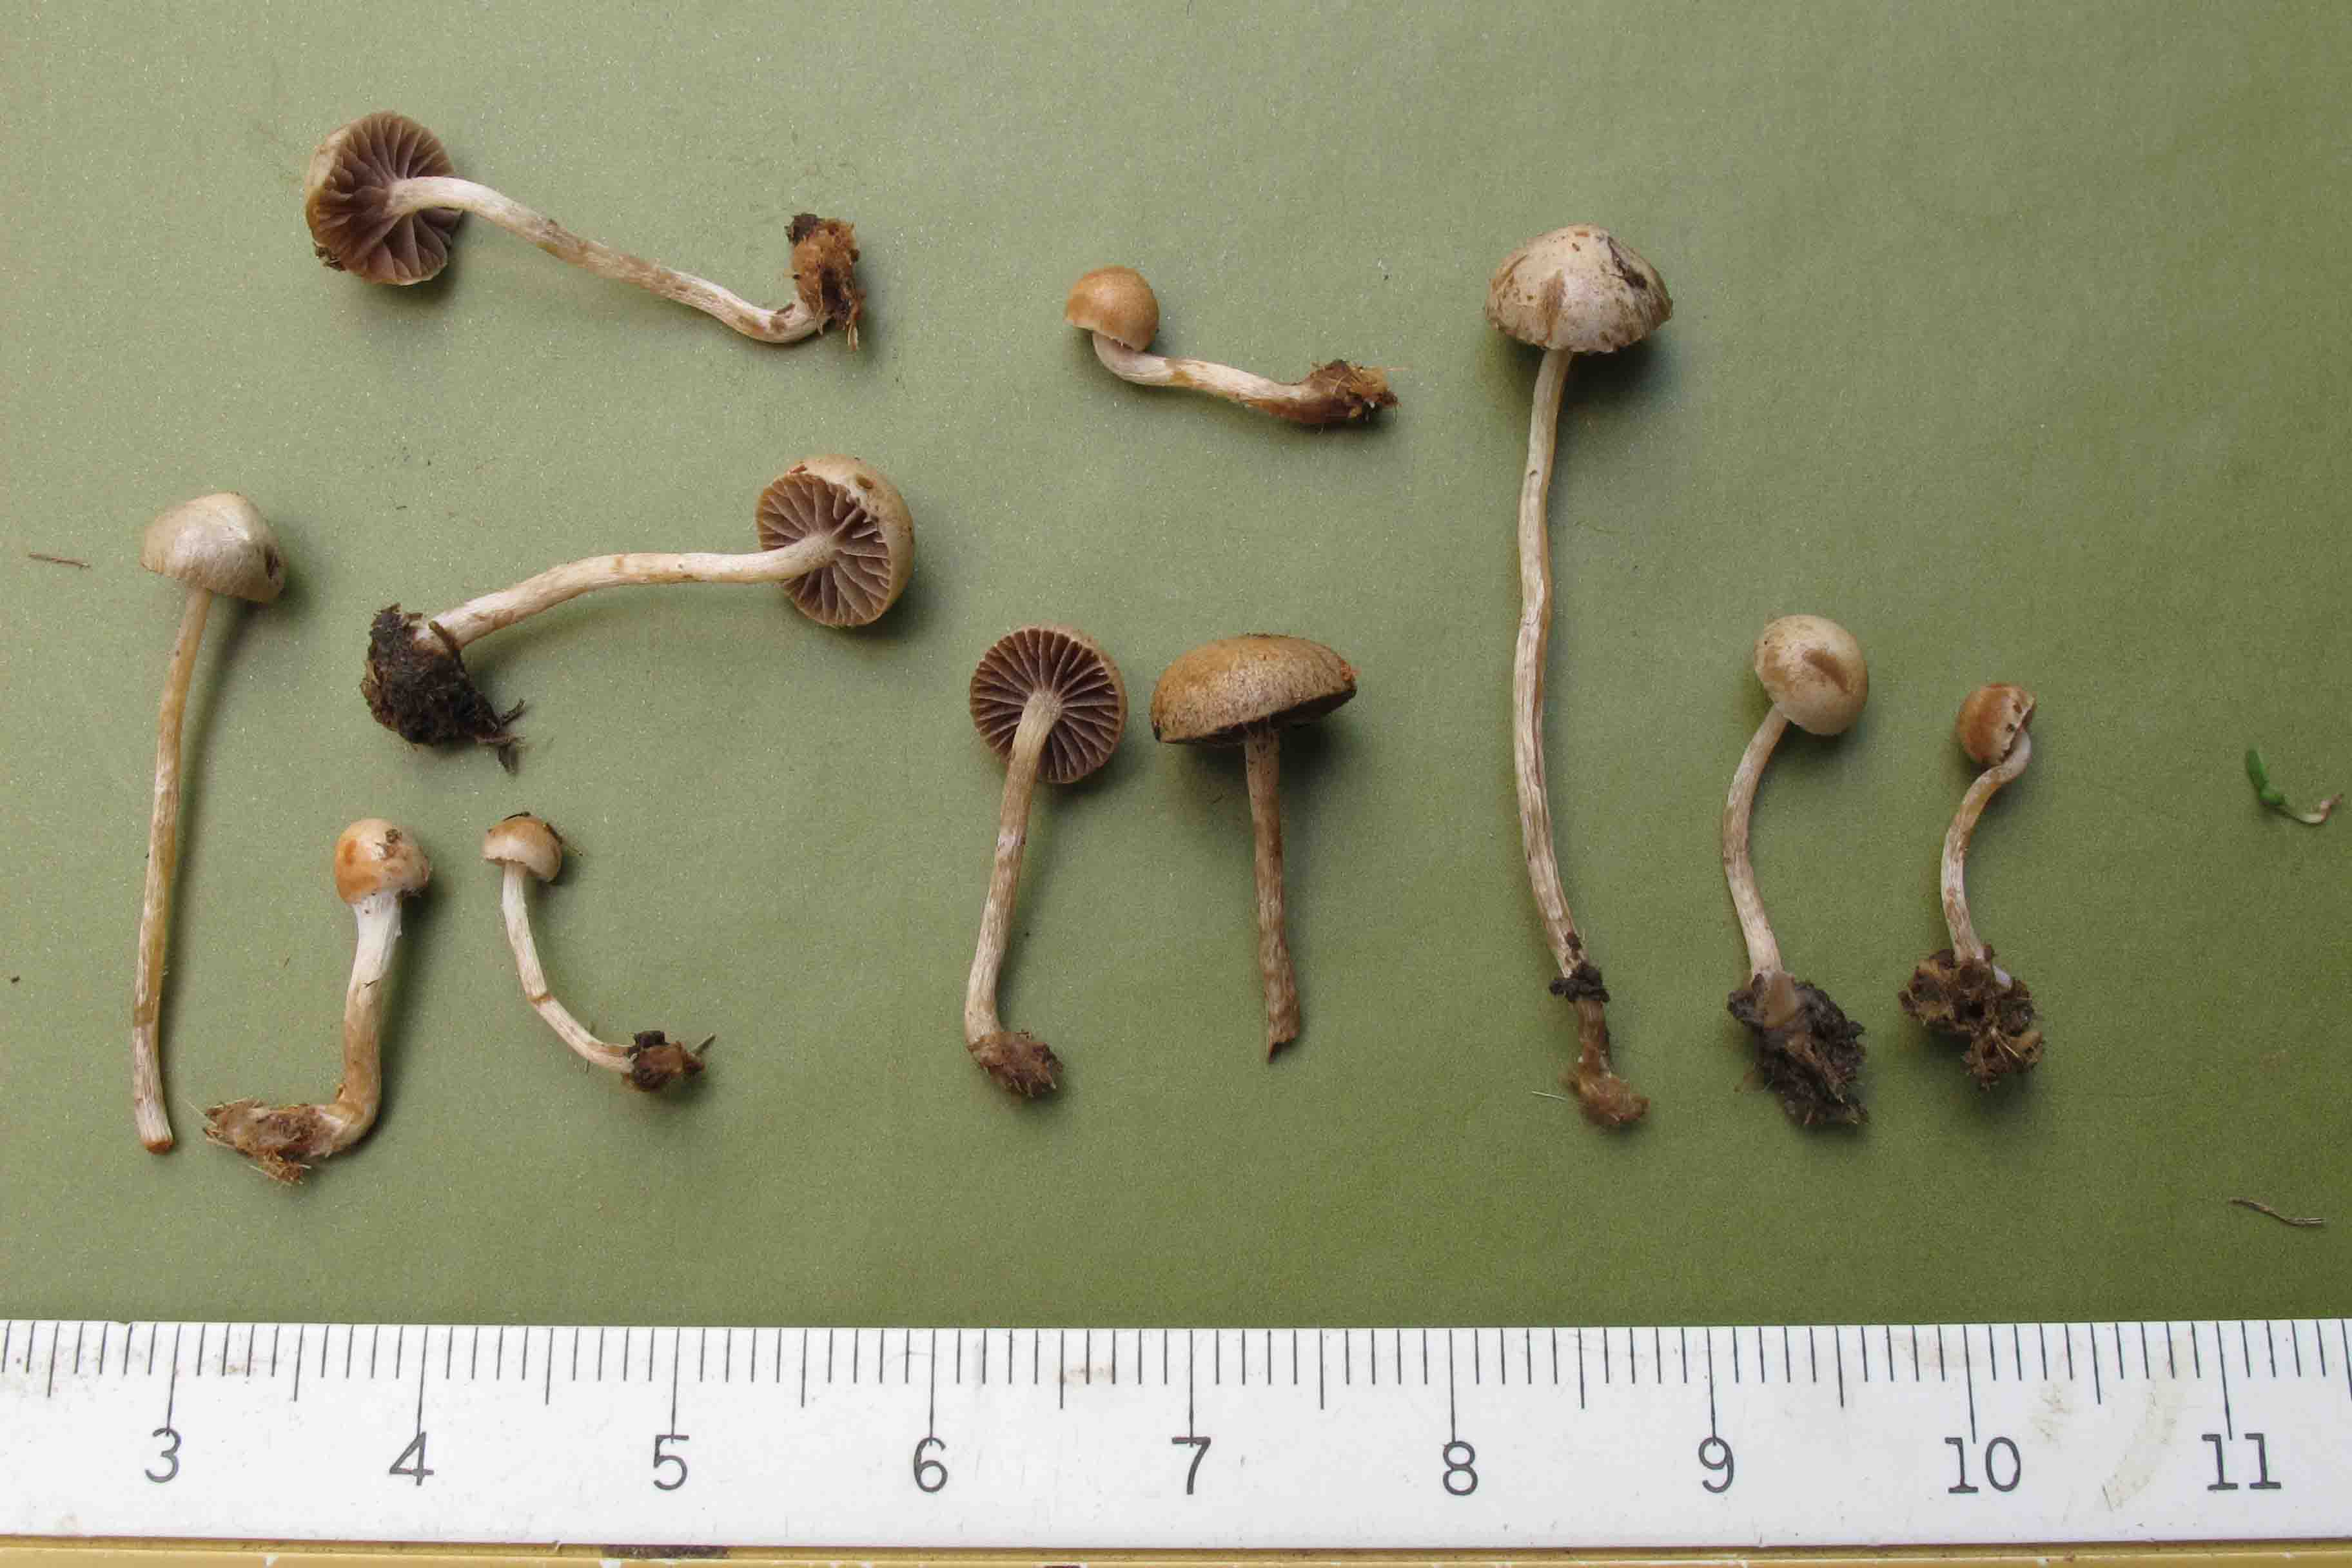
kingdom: Fungi
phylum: Basidiomycota
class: Agaricomycetes
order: Agaricales
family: Strophariaceae
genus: Deconica
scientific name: Deconica coprophila
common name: gødnings-stråhat
